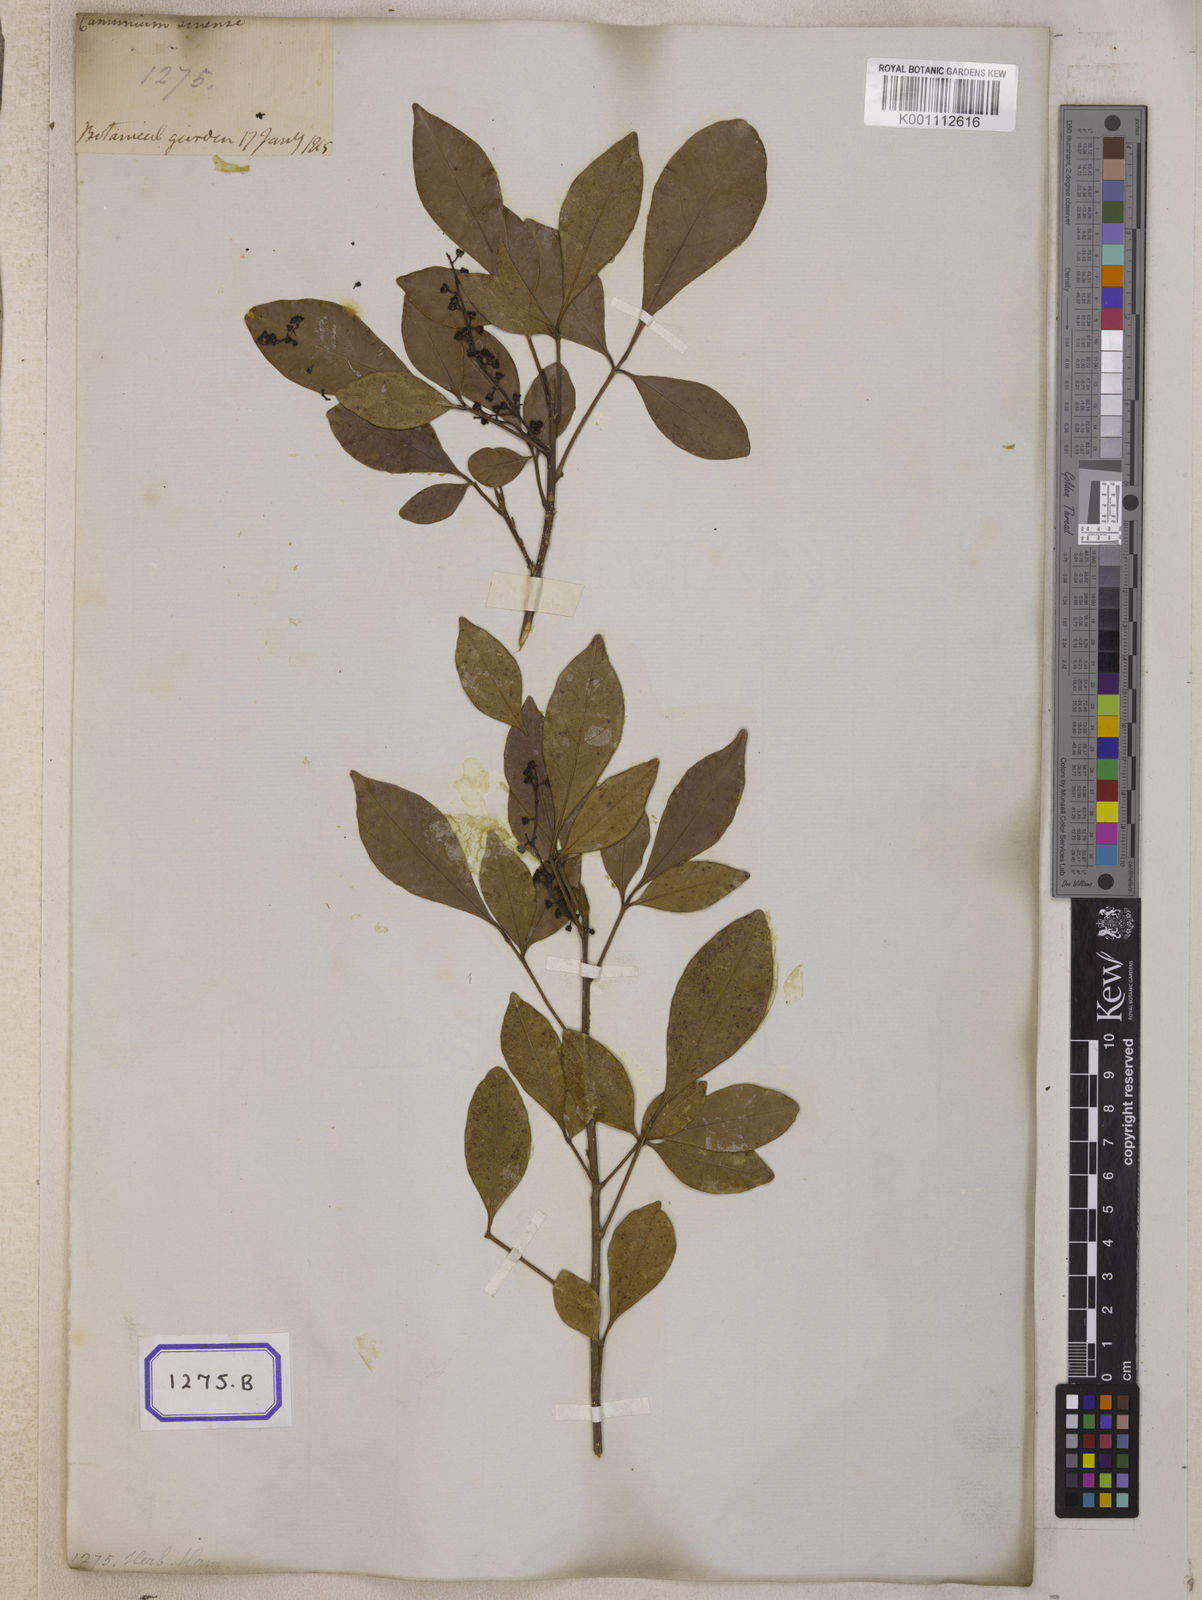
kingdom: Plantae
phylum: Tracheophyta
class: Magnoliopsida
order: Sapindales
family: Meliaceae
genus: Aglaia
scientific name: Aglaia odorata
